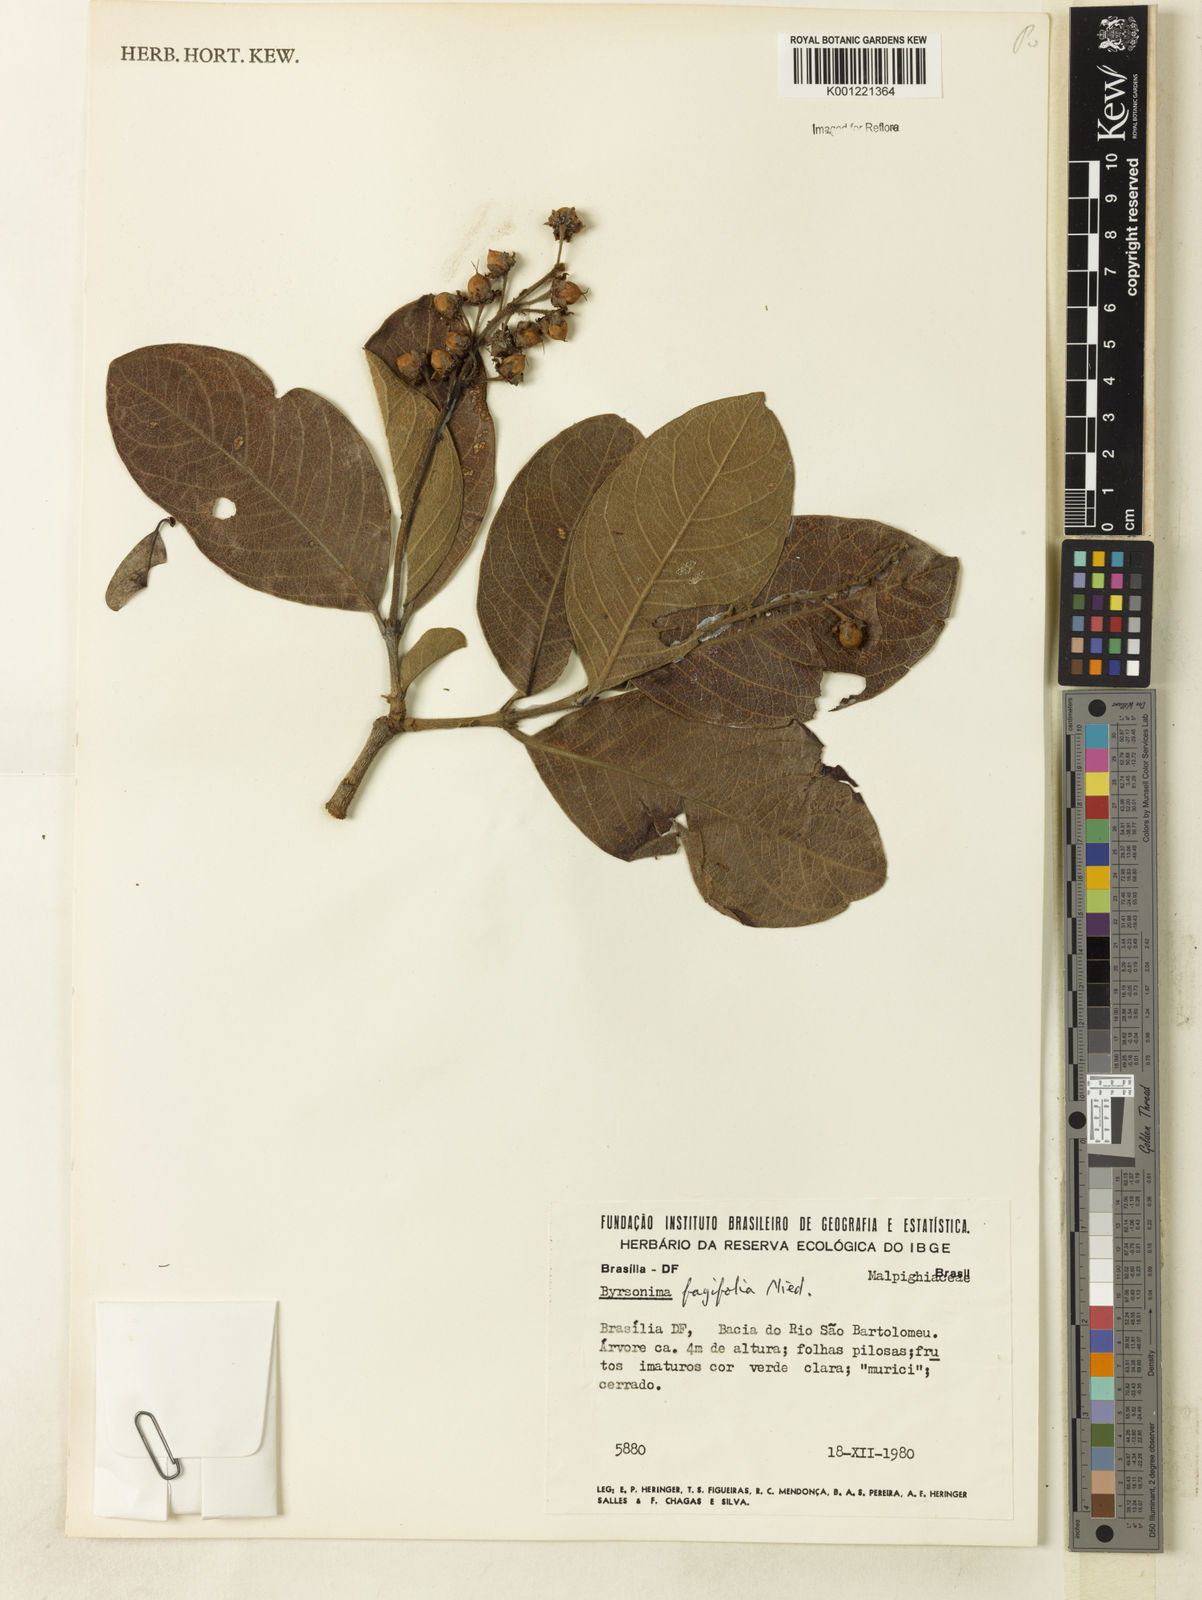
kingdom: Plantae
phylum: Tracheophyta
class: Magnoliopsida
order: Malpighiales
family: Malpighiaceae
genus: Byrsonima
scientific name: Byrsonima crassifolia
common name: Golden spoon
